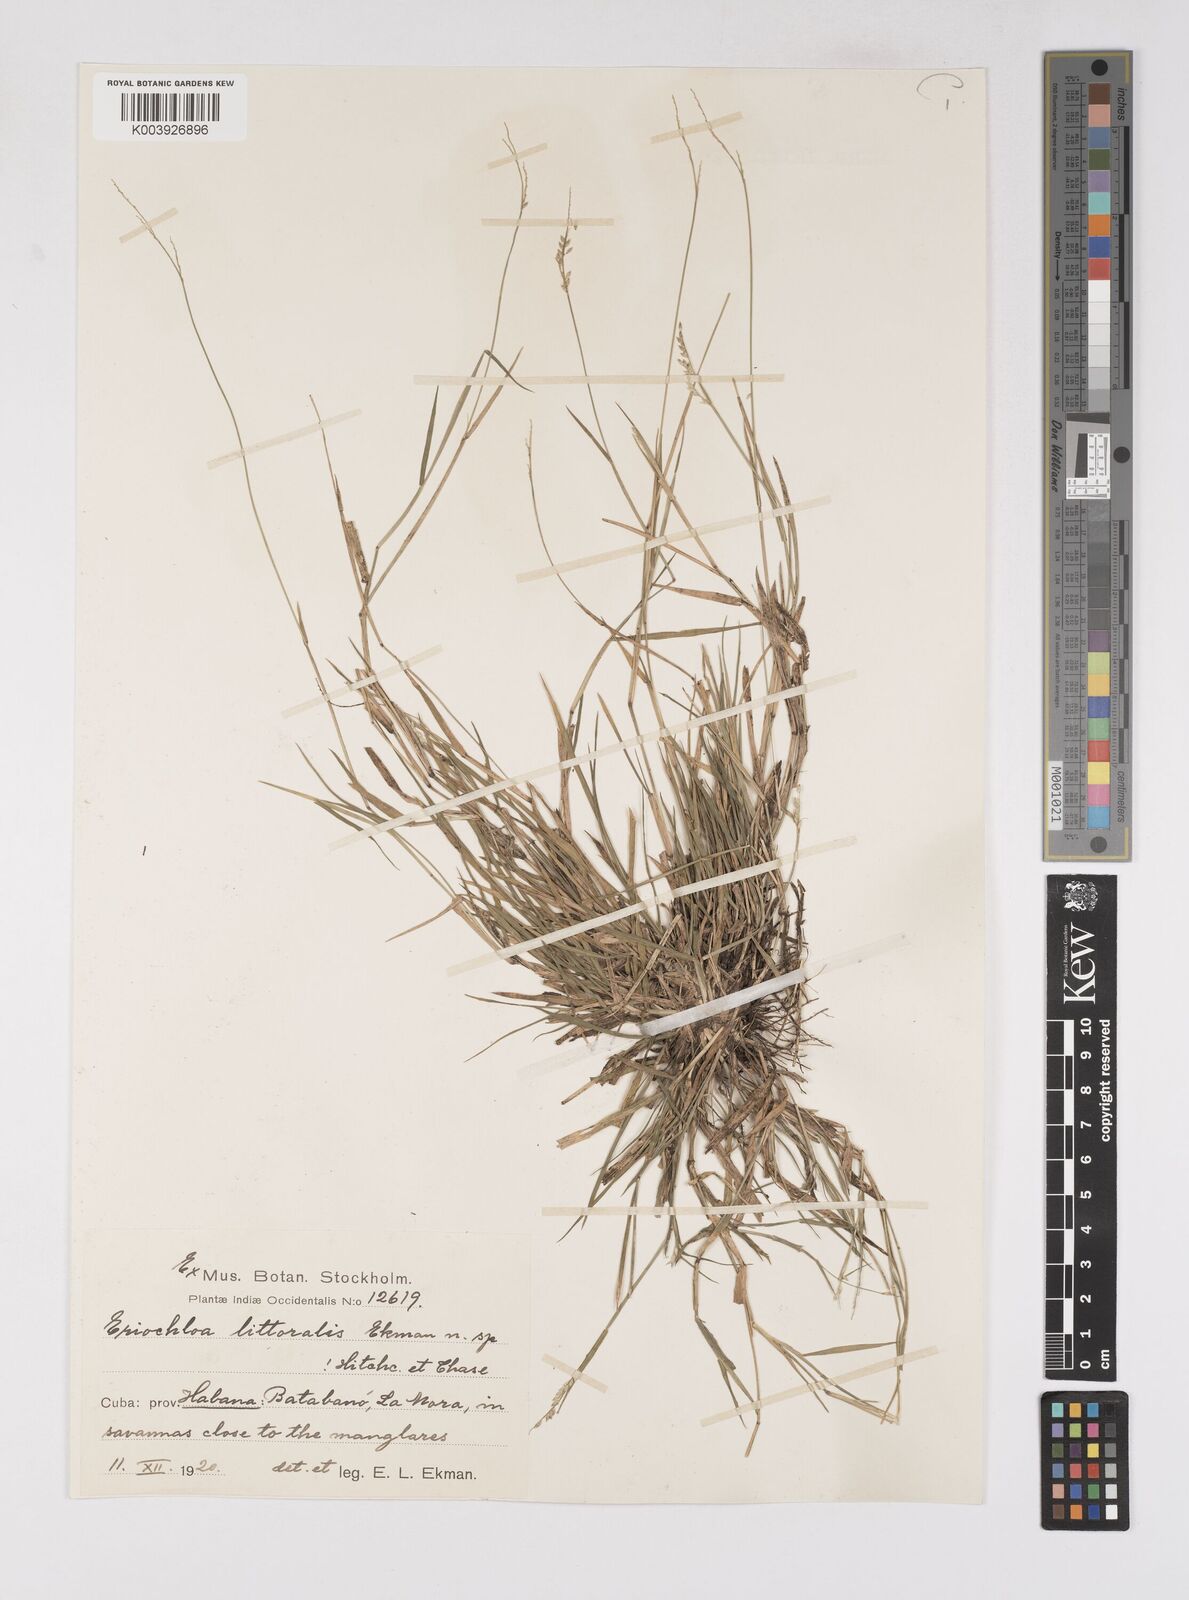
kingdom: Plantae
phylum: Tracheophyta
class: Liliopsida
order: Poales
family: Poaceae
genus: Eriochloa
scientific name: Eriochloa procera
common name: Spring grass
